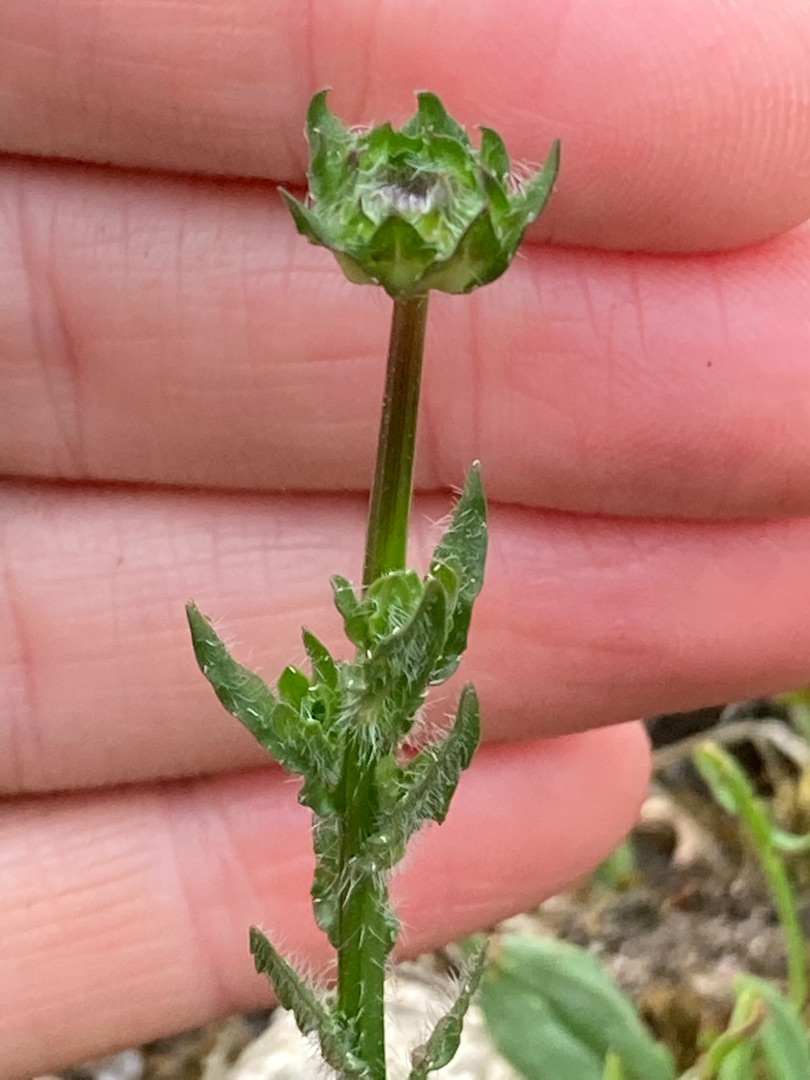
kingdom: Plantae
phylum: Tracheophyta
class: Magnoliopsida
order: Asterales
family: Campanulaceae
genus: Jasione
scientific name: Jasione montana
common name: Blåmunke
